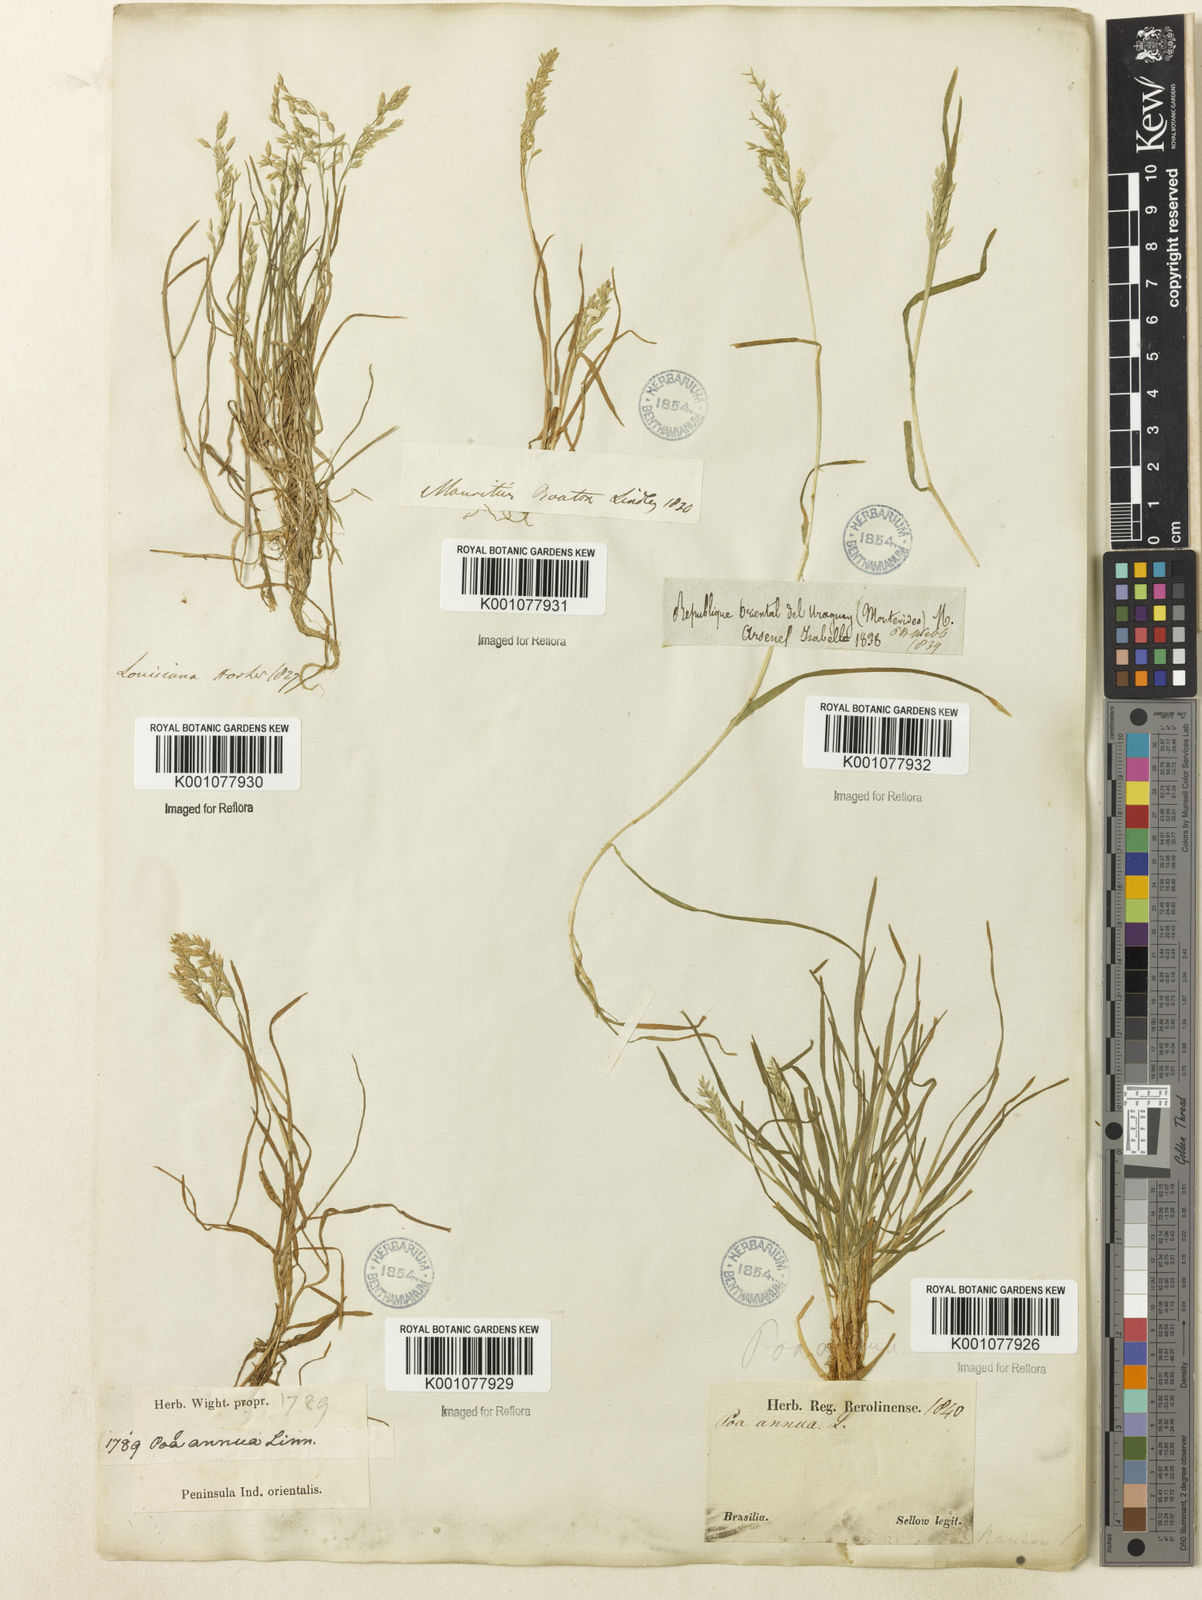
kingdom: Plantae
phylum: Tracheophyta
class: Liliopsida
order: Poales
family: Poaceae
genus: Poa
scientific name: Poa annua
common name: Annual bluegrass
